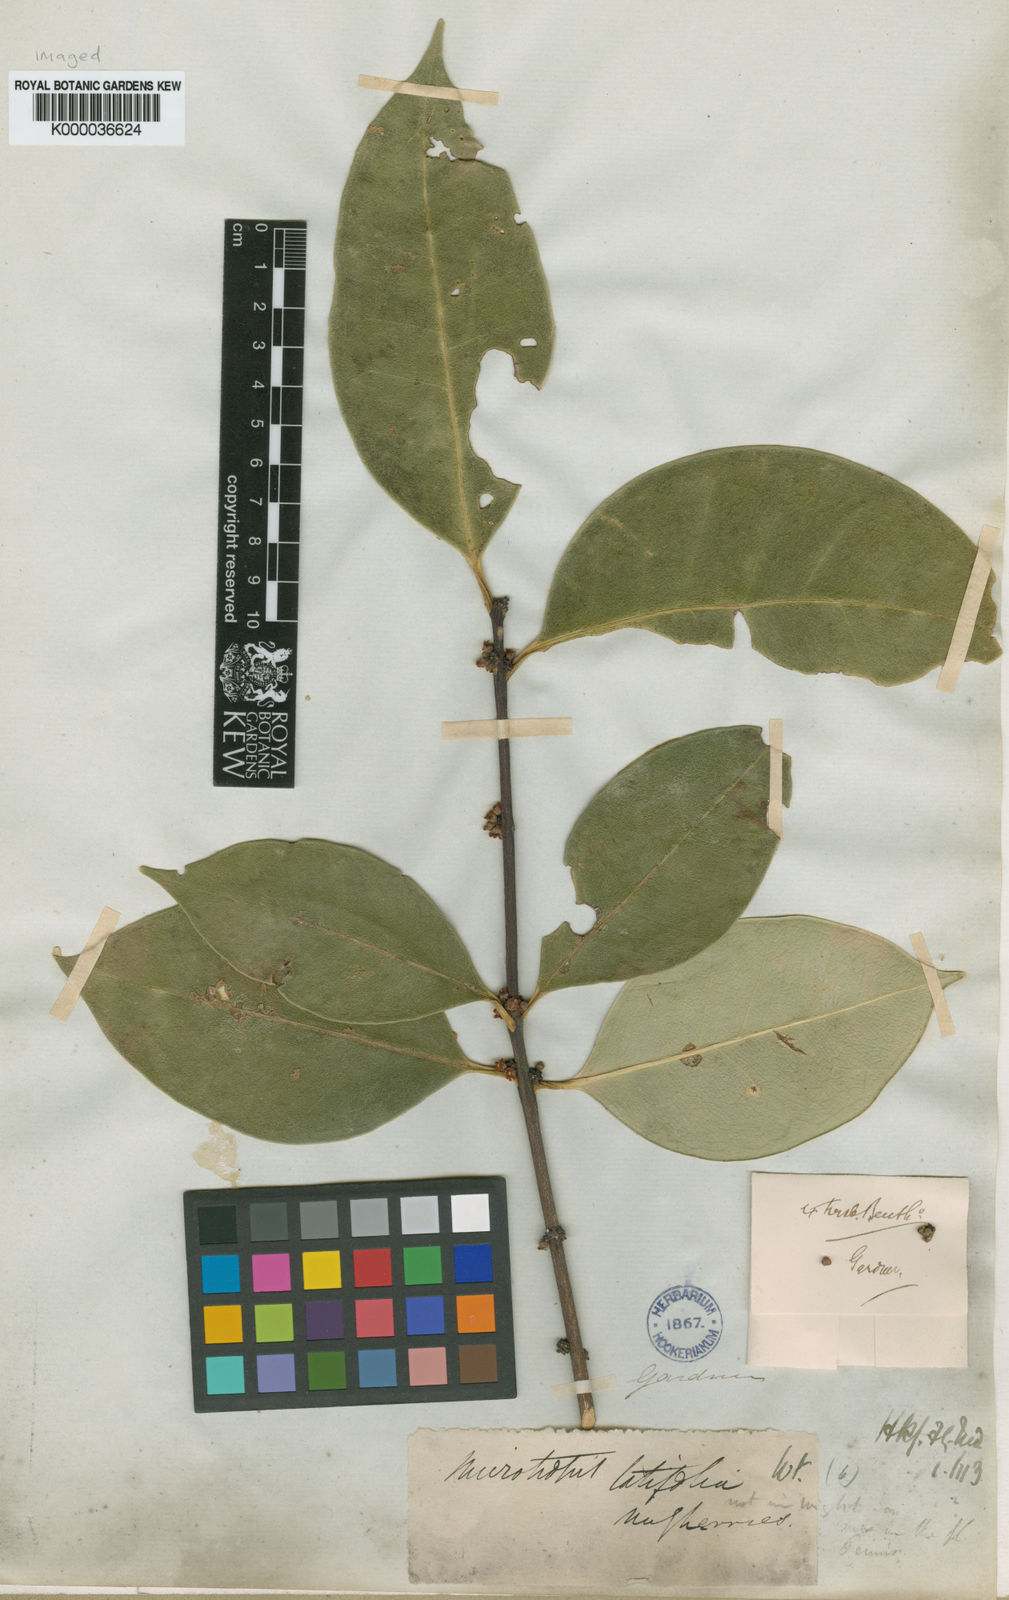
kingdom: Plantae
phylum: Tracheophyta
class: Magnoliopsida
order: Celastrales
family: Celastraceae
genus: Microtropis
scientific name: Microtropis latifolia
